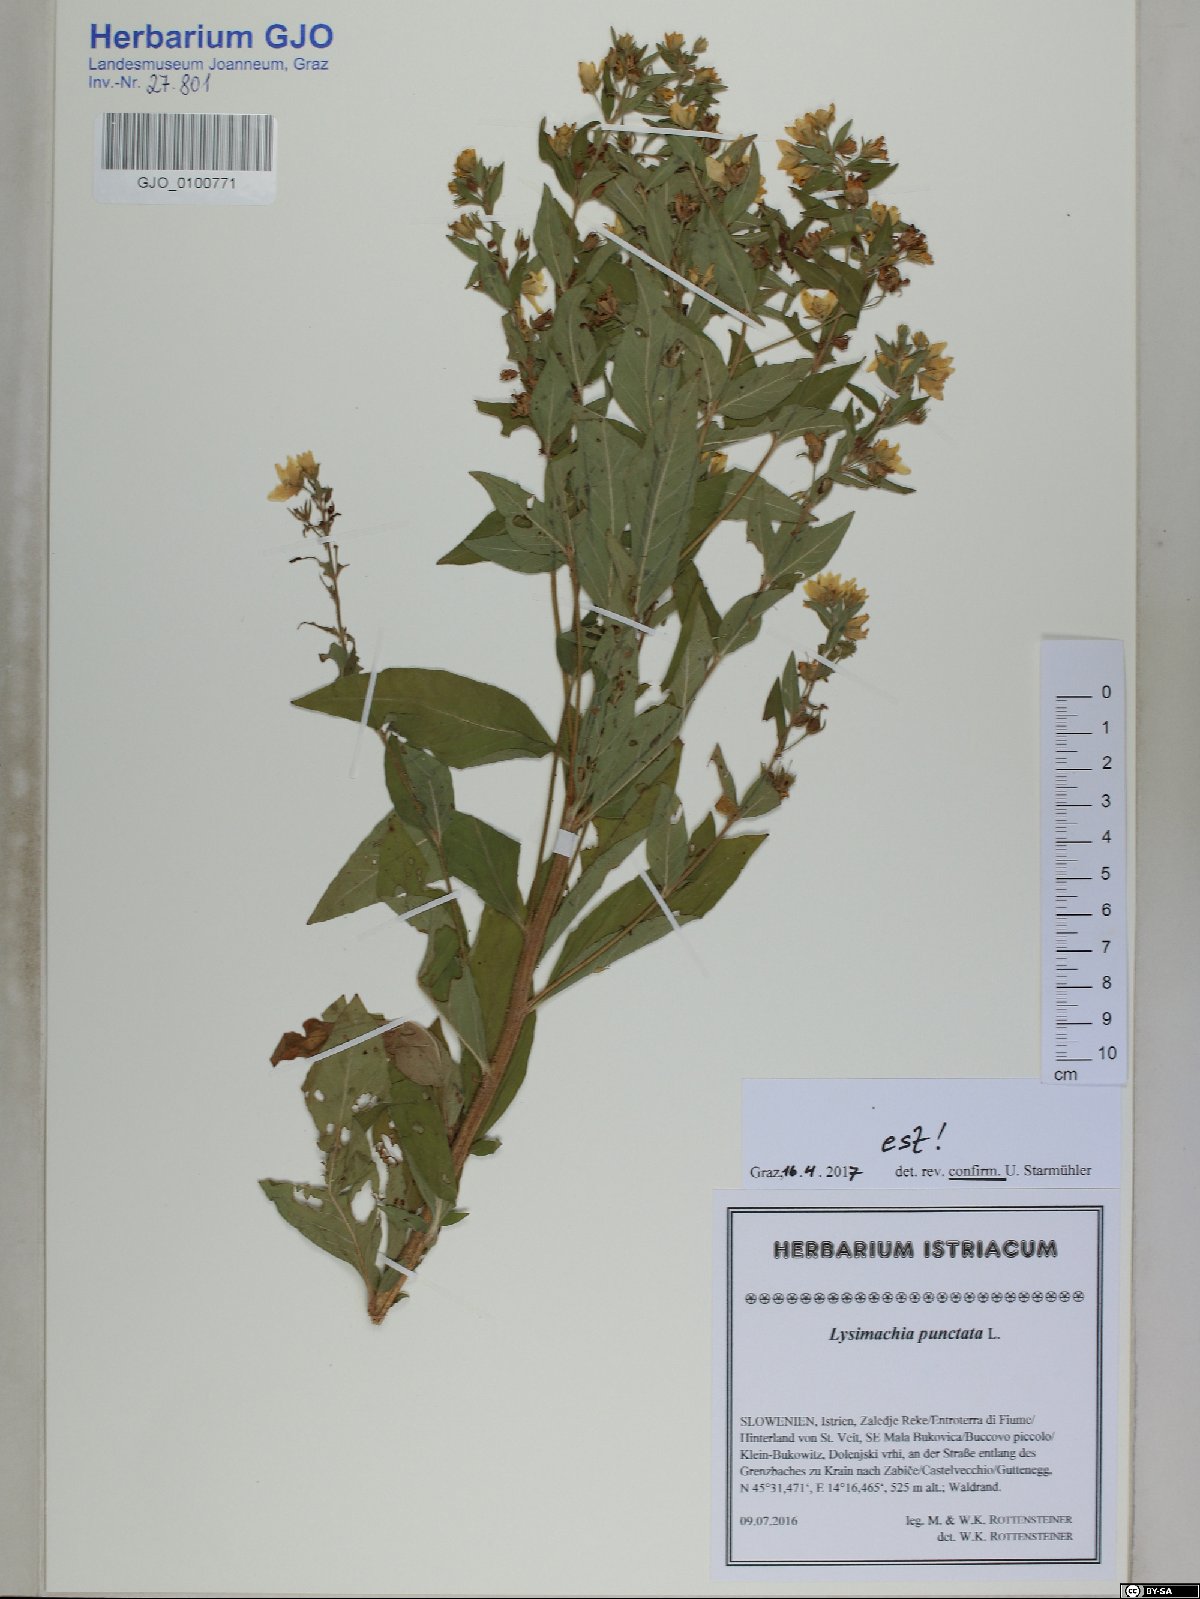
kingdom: Plantae
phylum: Tracheophyta
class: Magnoliopsida
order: Ericales
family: Primulaceae
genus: Lysimachia
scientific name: Lysimachia punctata
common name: Dotted loosestrife
